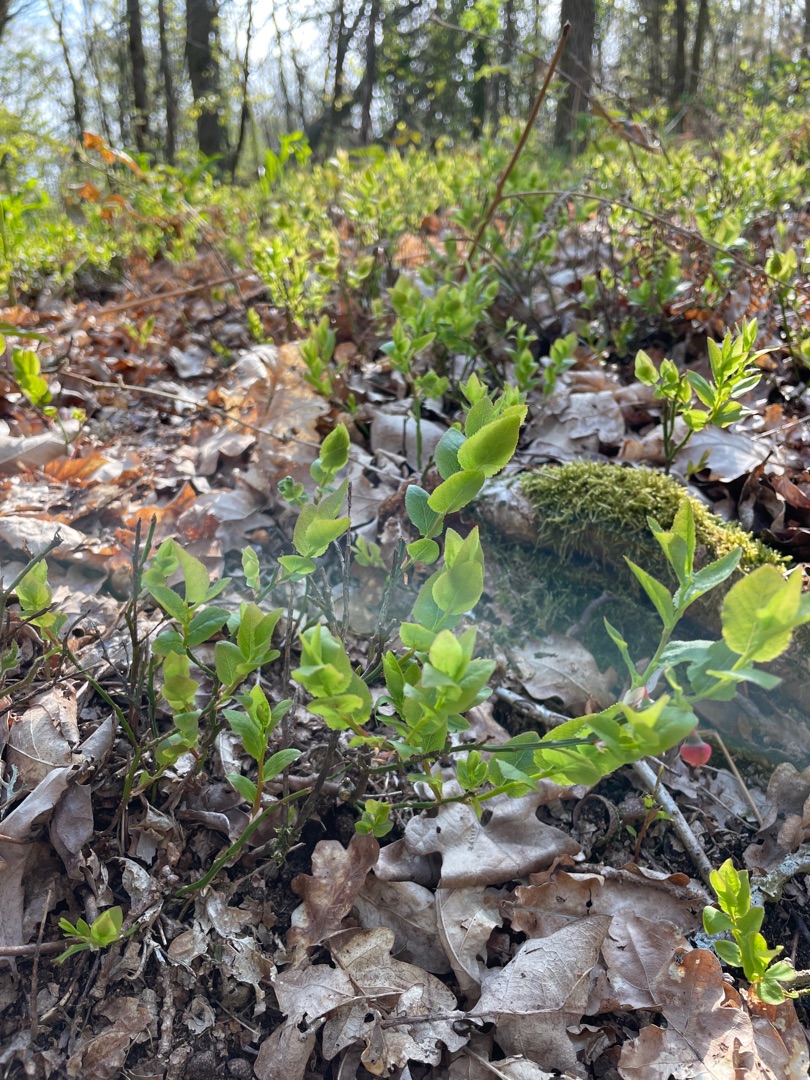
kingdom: Plantae
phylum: Tracheophyta
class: Magnoliopsida
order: Ericales
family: Ericaceae
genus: Vaccinium
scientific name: Vaccinium myrtillus
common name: Blåbær
